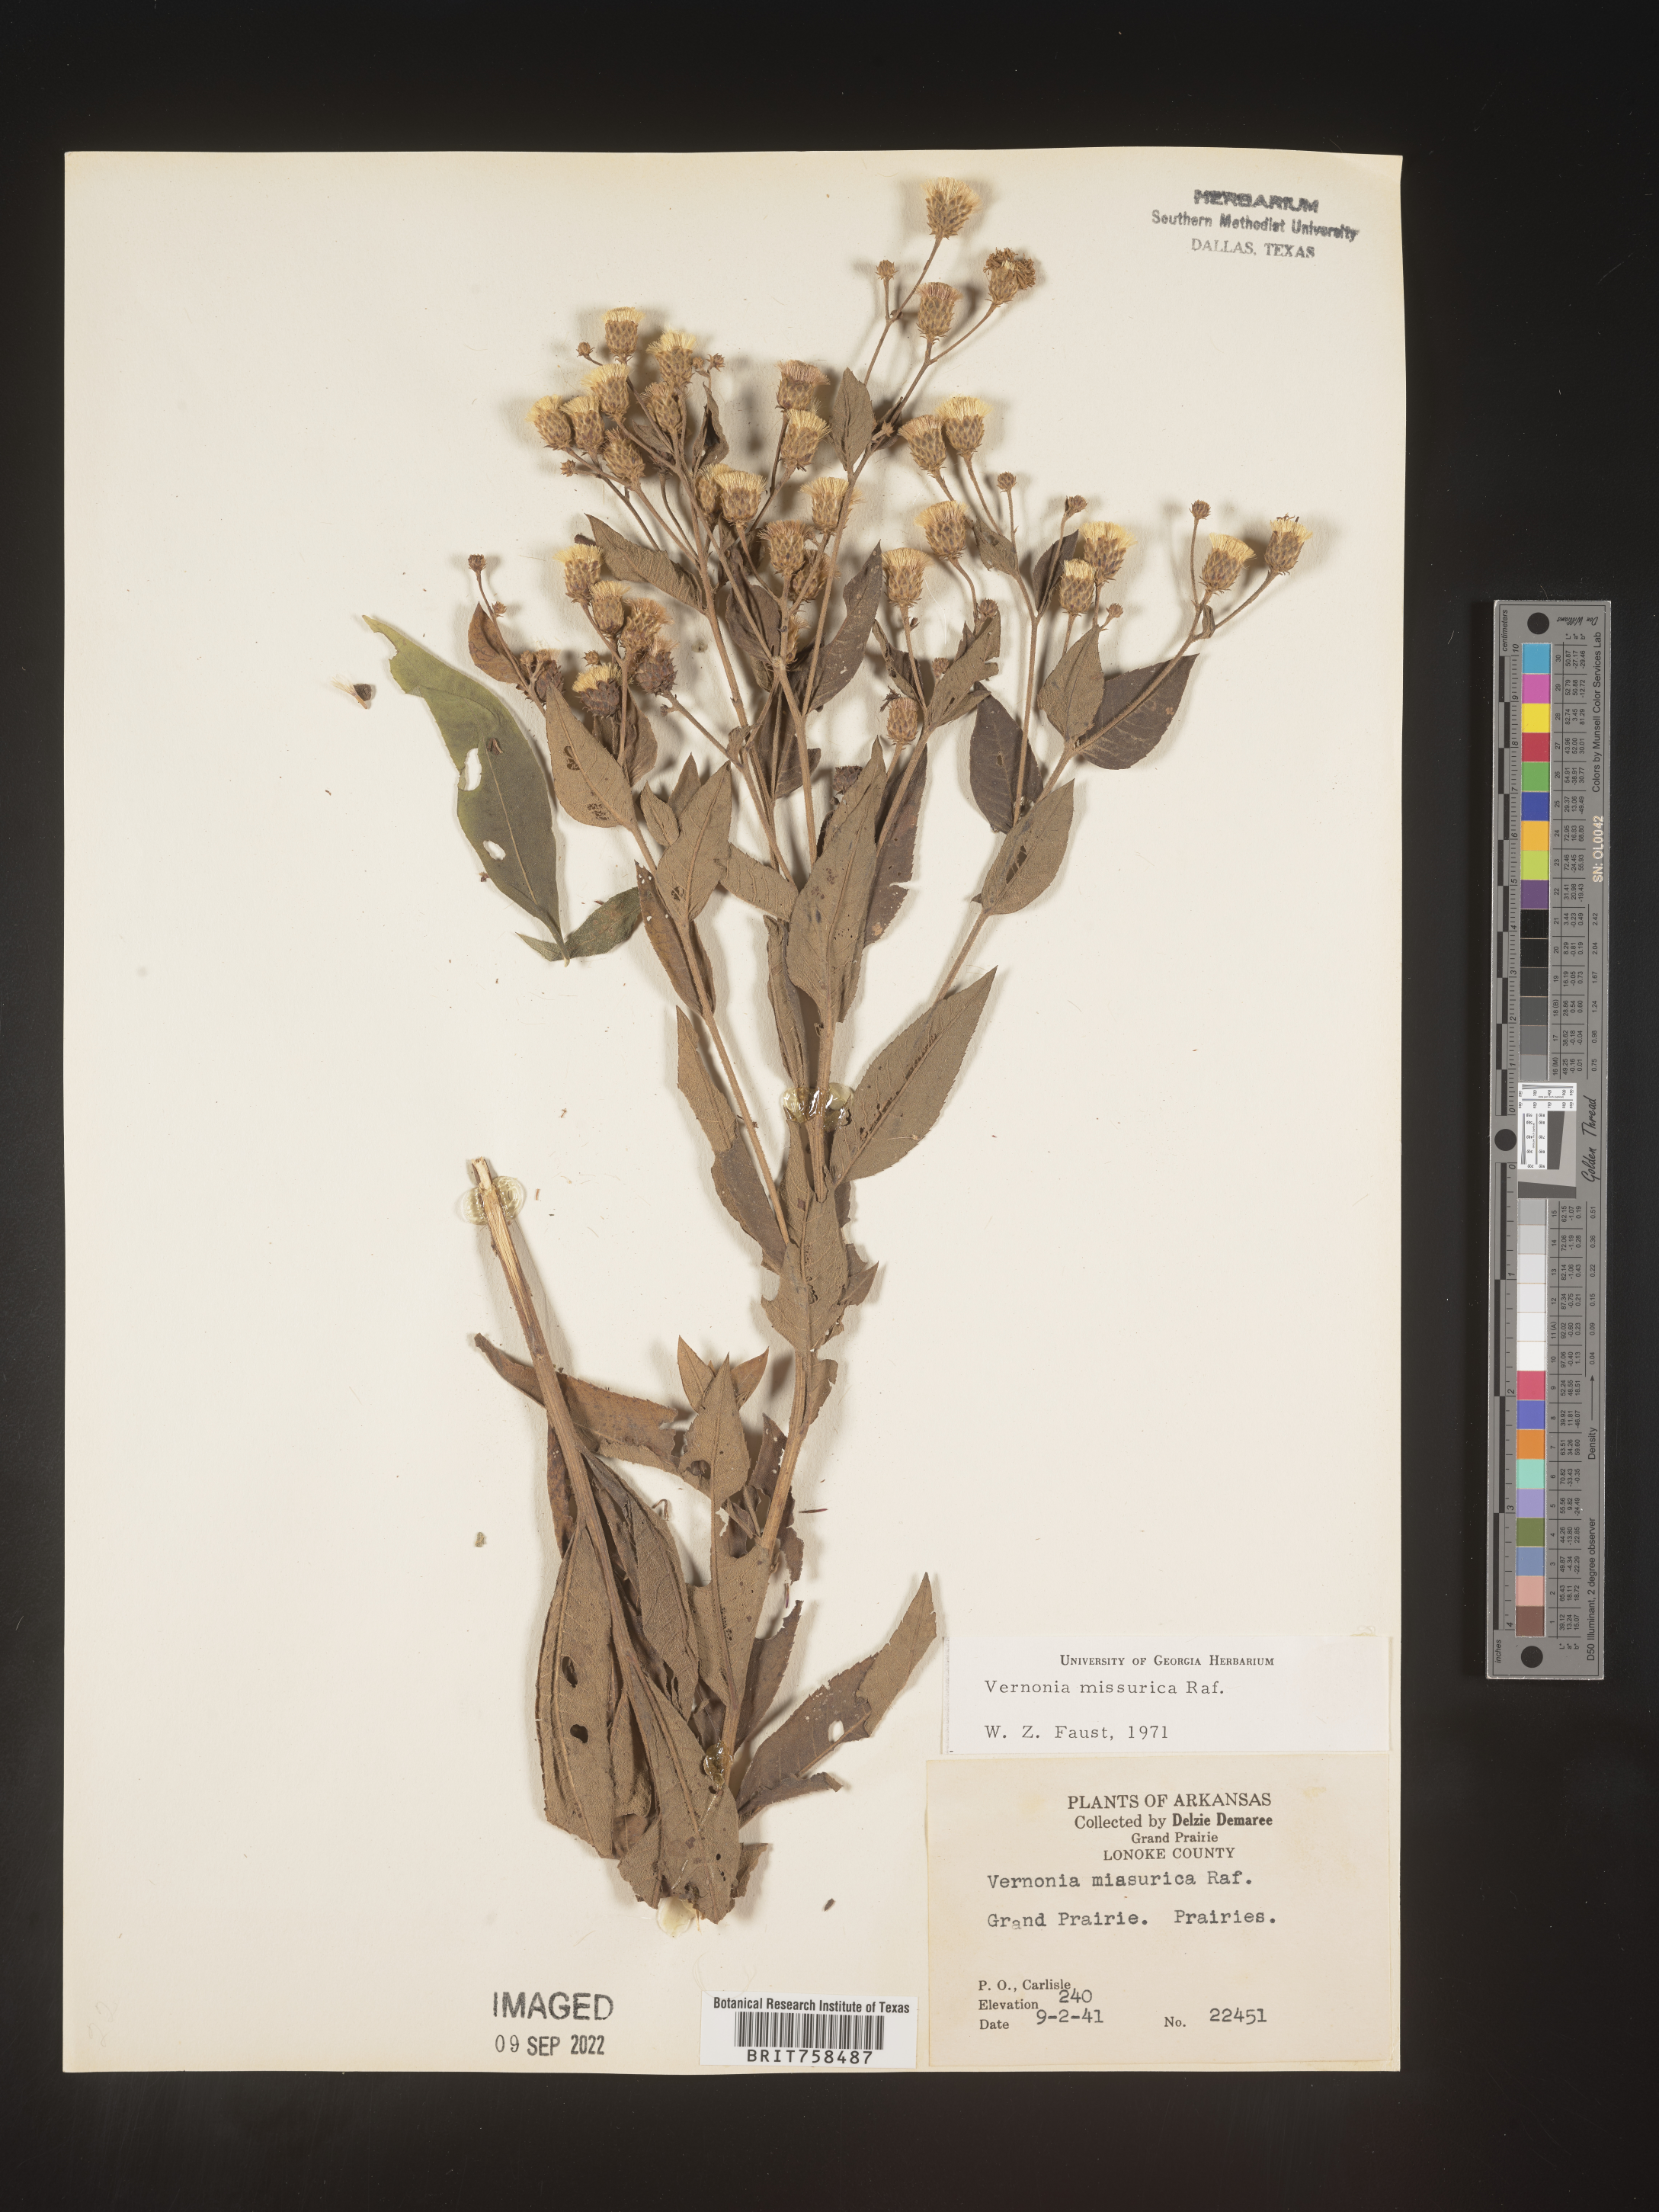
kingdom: Plantae
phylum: Tracheophyta
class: Magnoliopsida
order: Asterales
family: Asteraceae
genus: Vernonia
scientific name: Vernonia missurica
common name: Missouri ironweed
